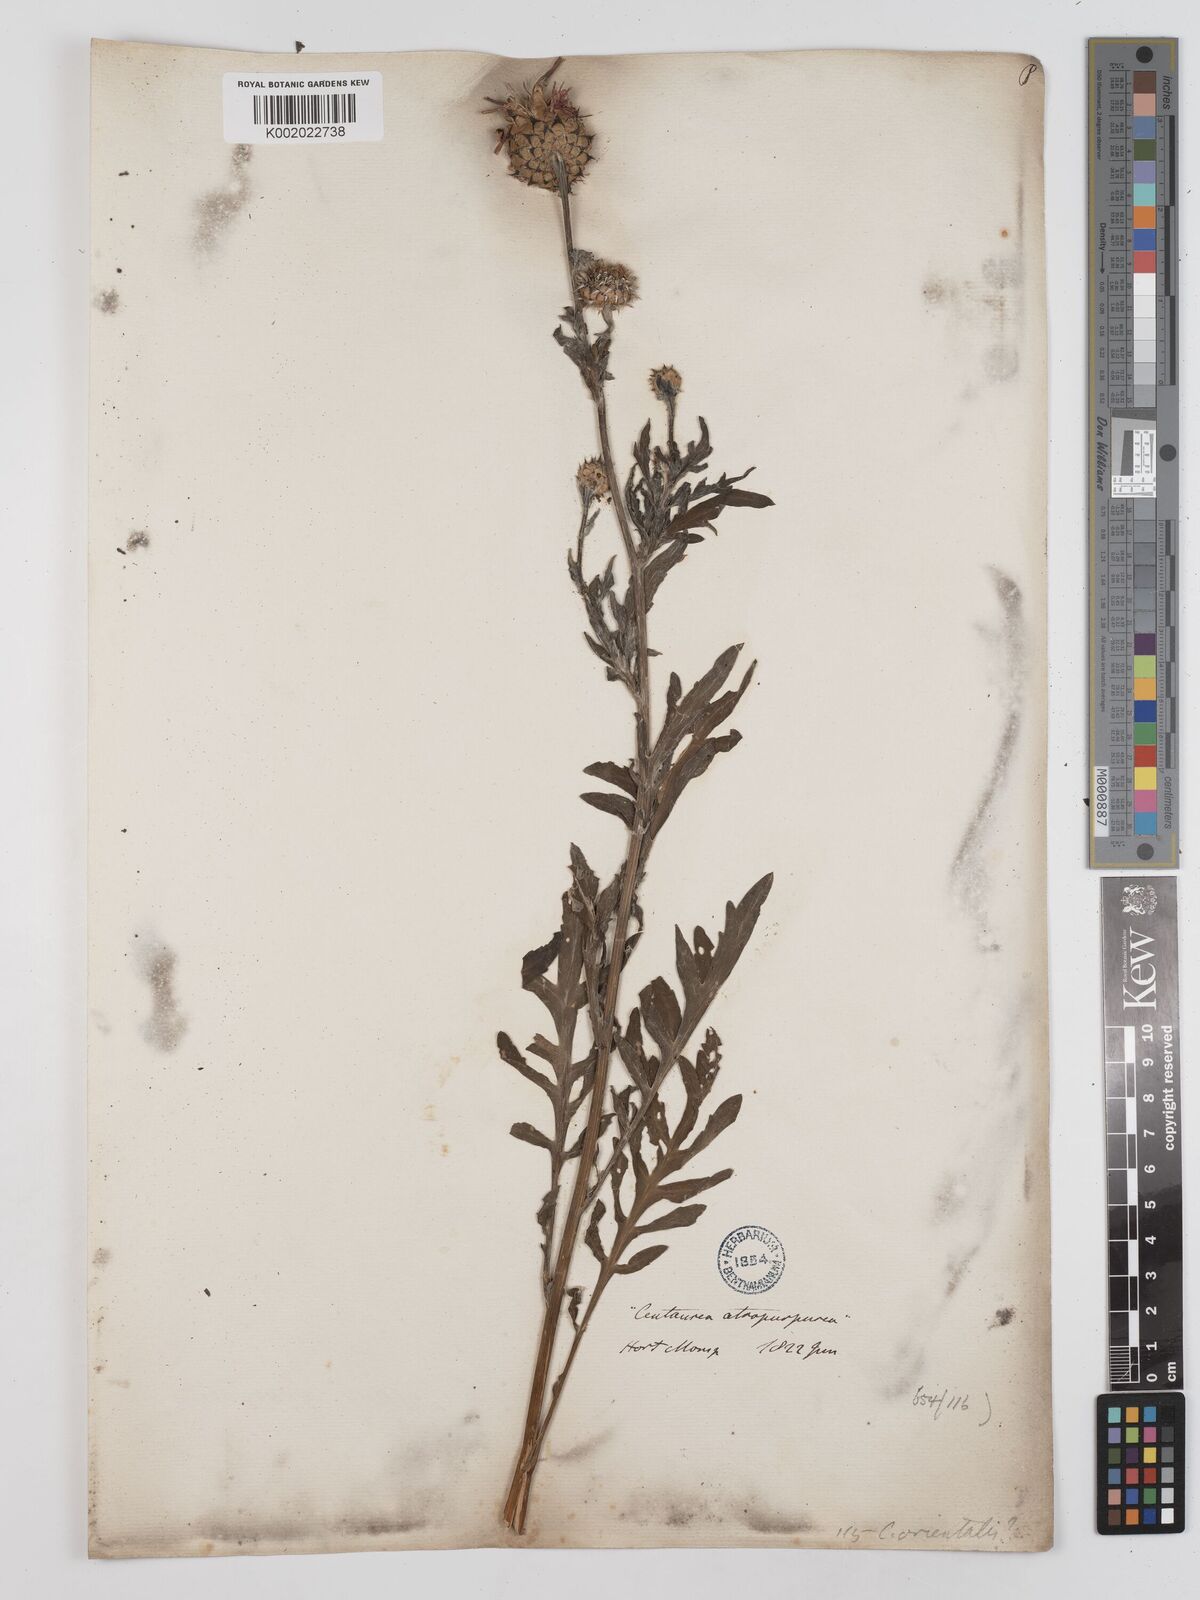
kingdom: Plantae
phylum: Tracheophyta
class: Magnoliopsida
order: Asterales
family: Asteraceae
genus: Centaurea
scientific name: Centaurea
